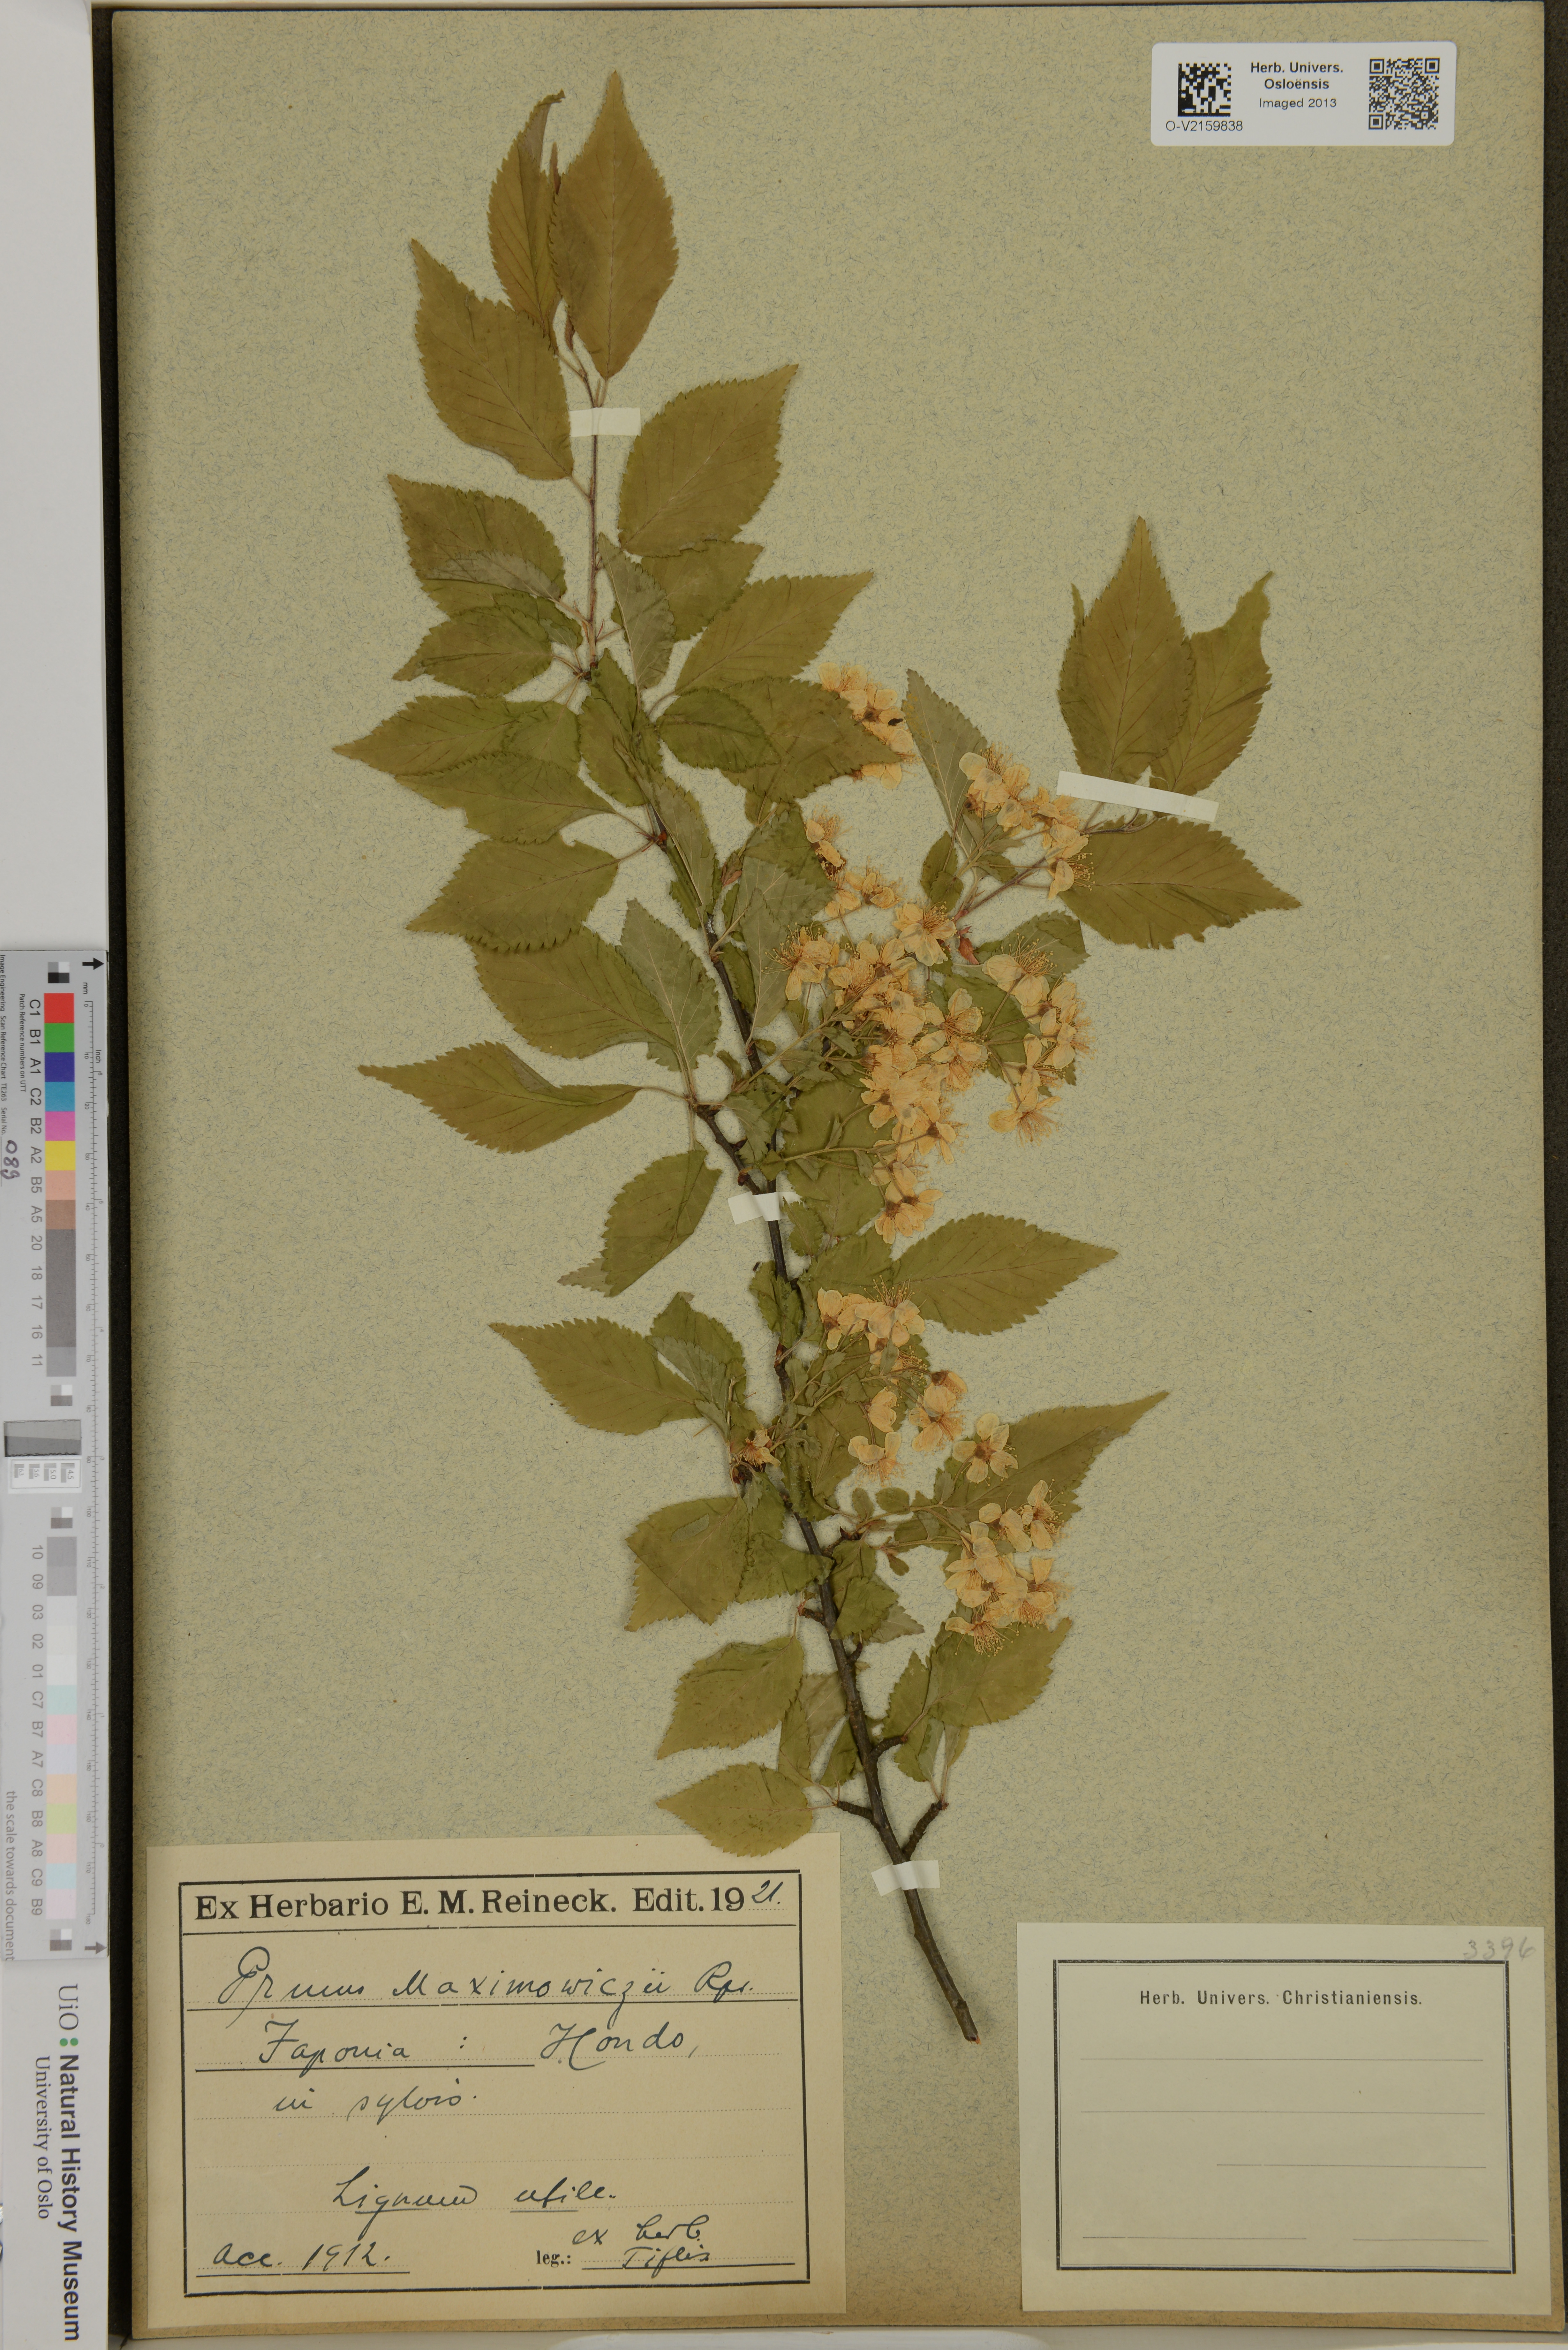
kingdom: Plantae
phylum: Tracheophyta
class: Magnoliopsida
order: Rosales
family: Rosaceae
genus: Prunus
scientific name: Prunus maximowiczii
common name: Korean cherry
